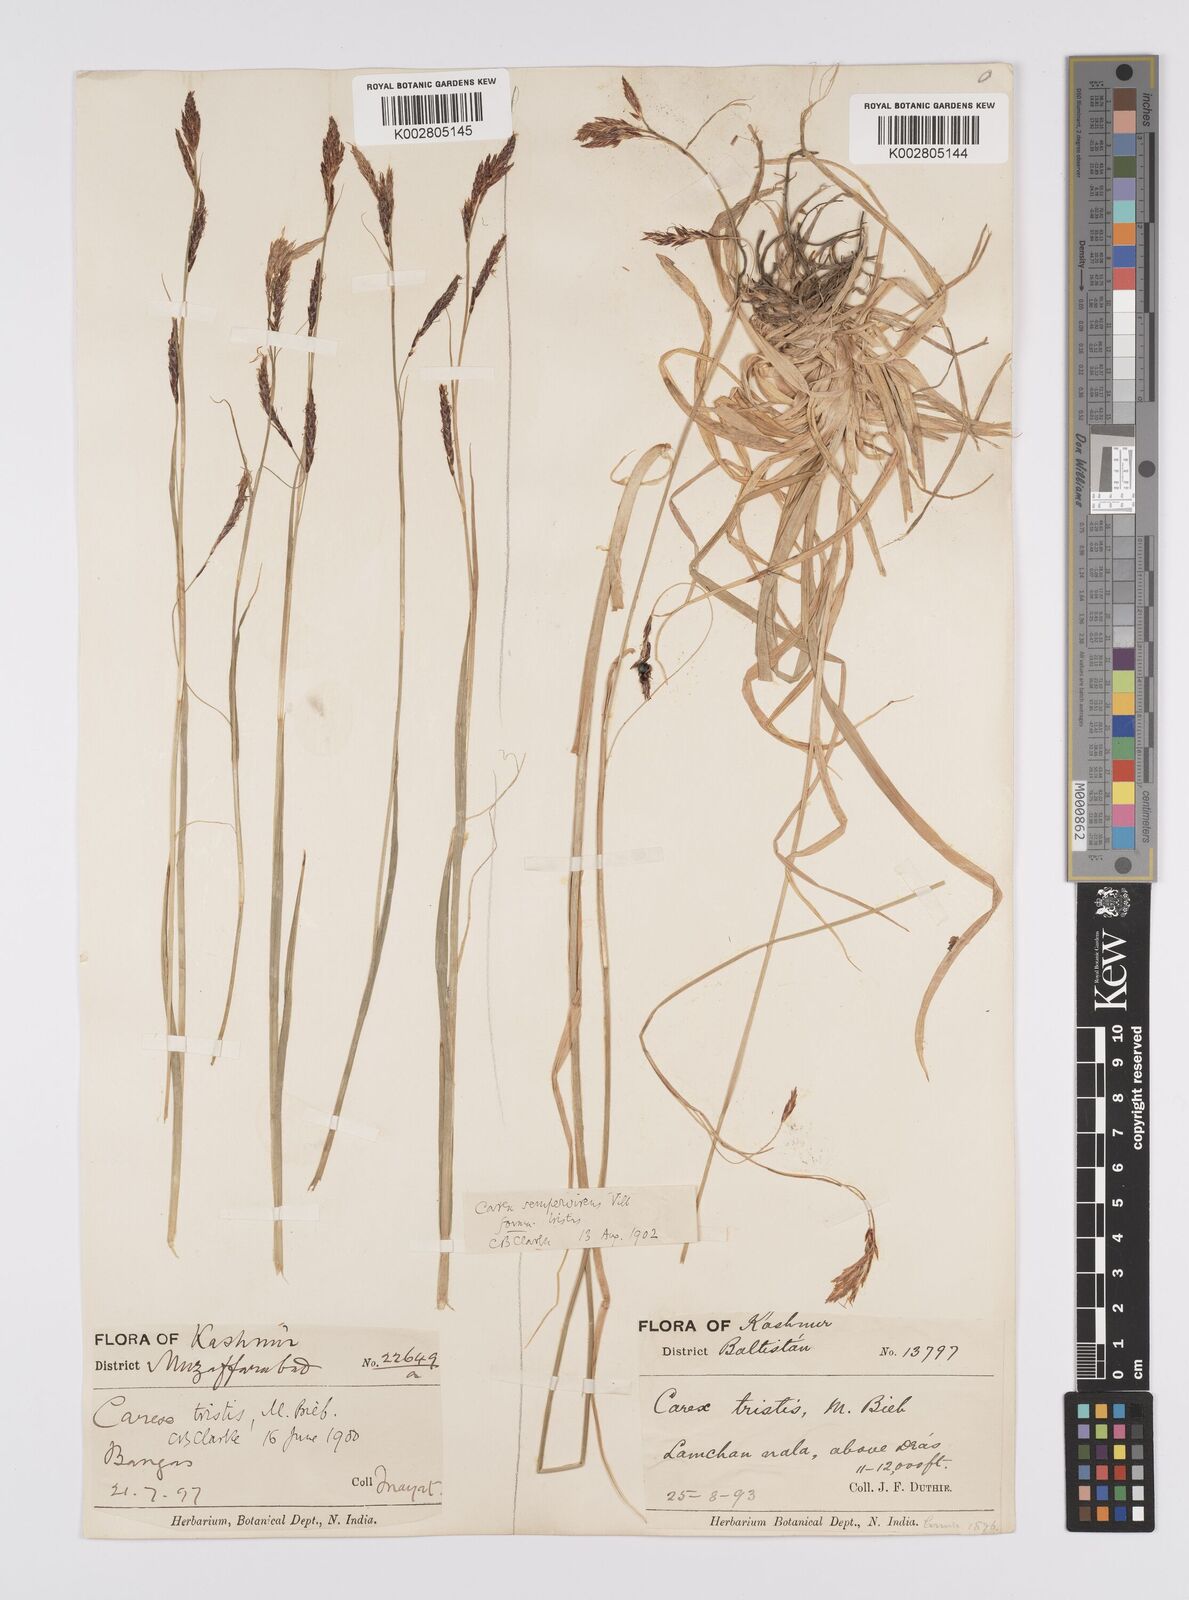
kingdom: Plantae
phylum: Tracheophyta
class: Liliopsida
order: Poales
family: Cyperaceae
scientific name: Cyperaceae
